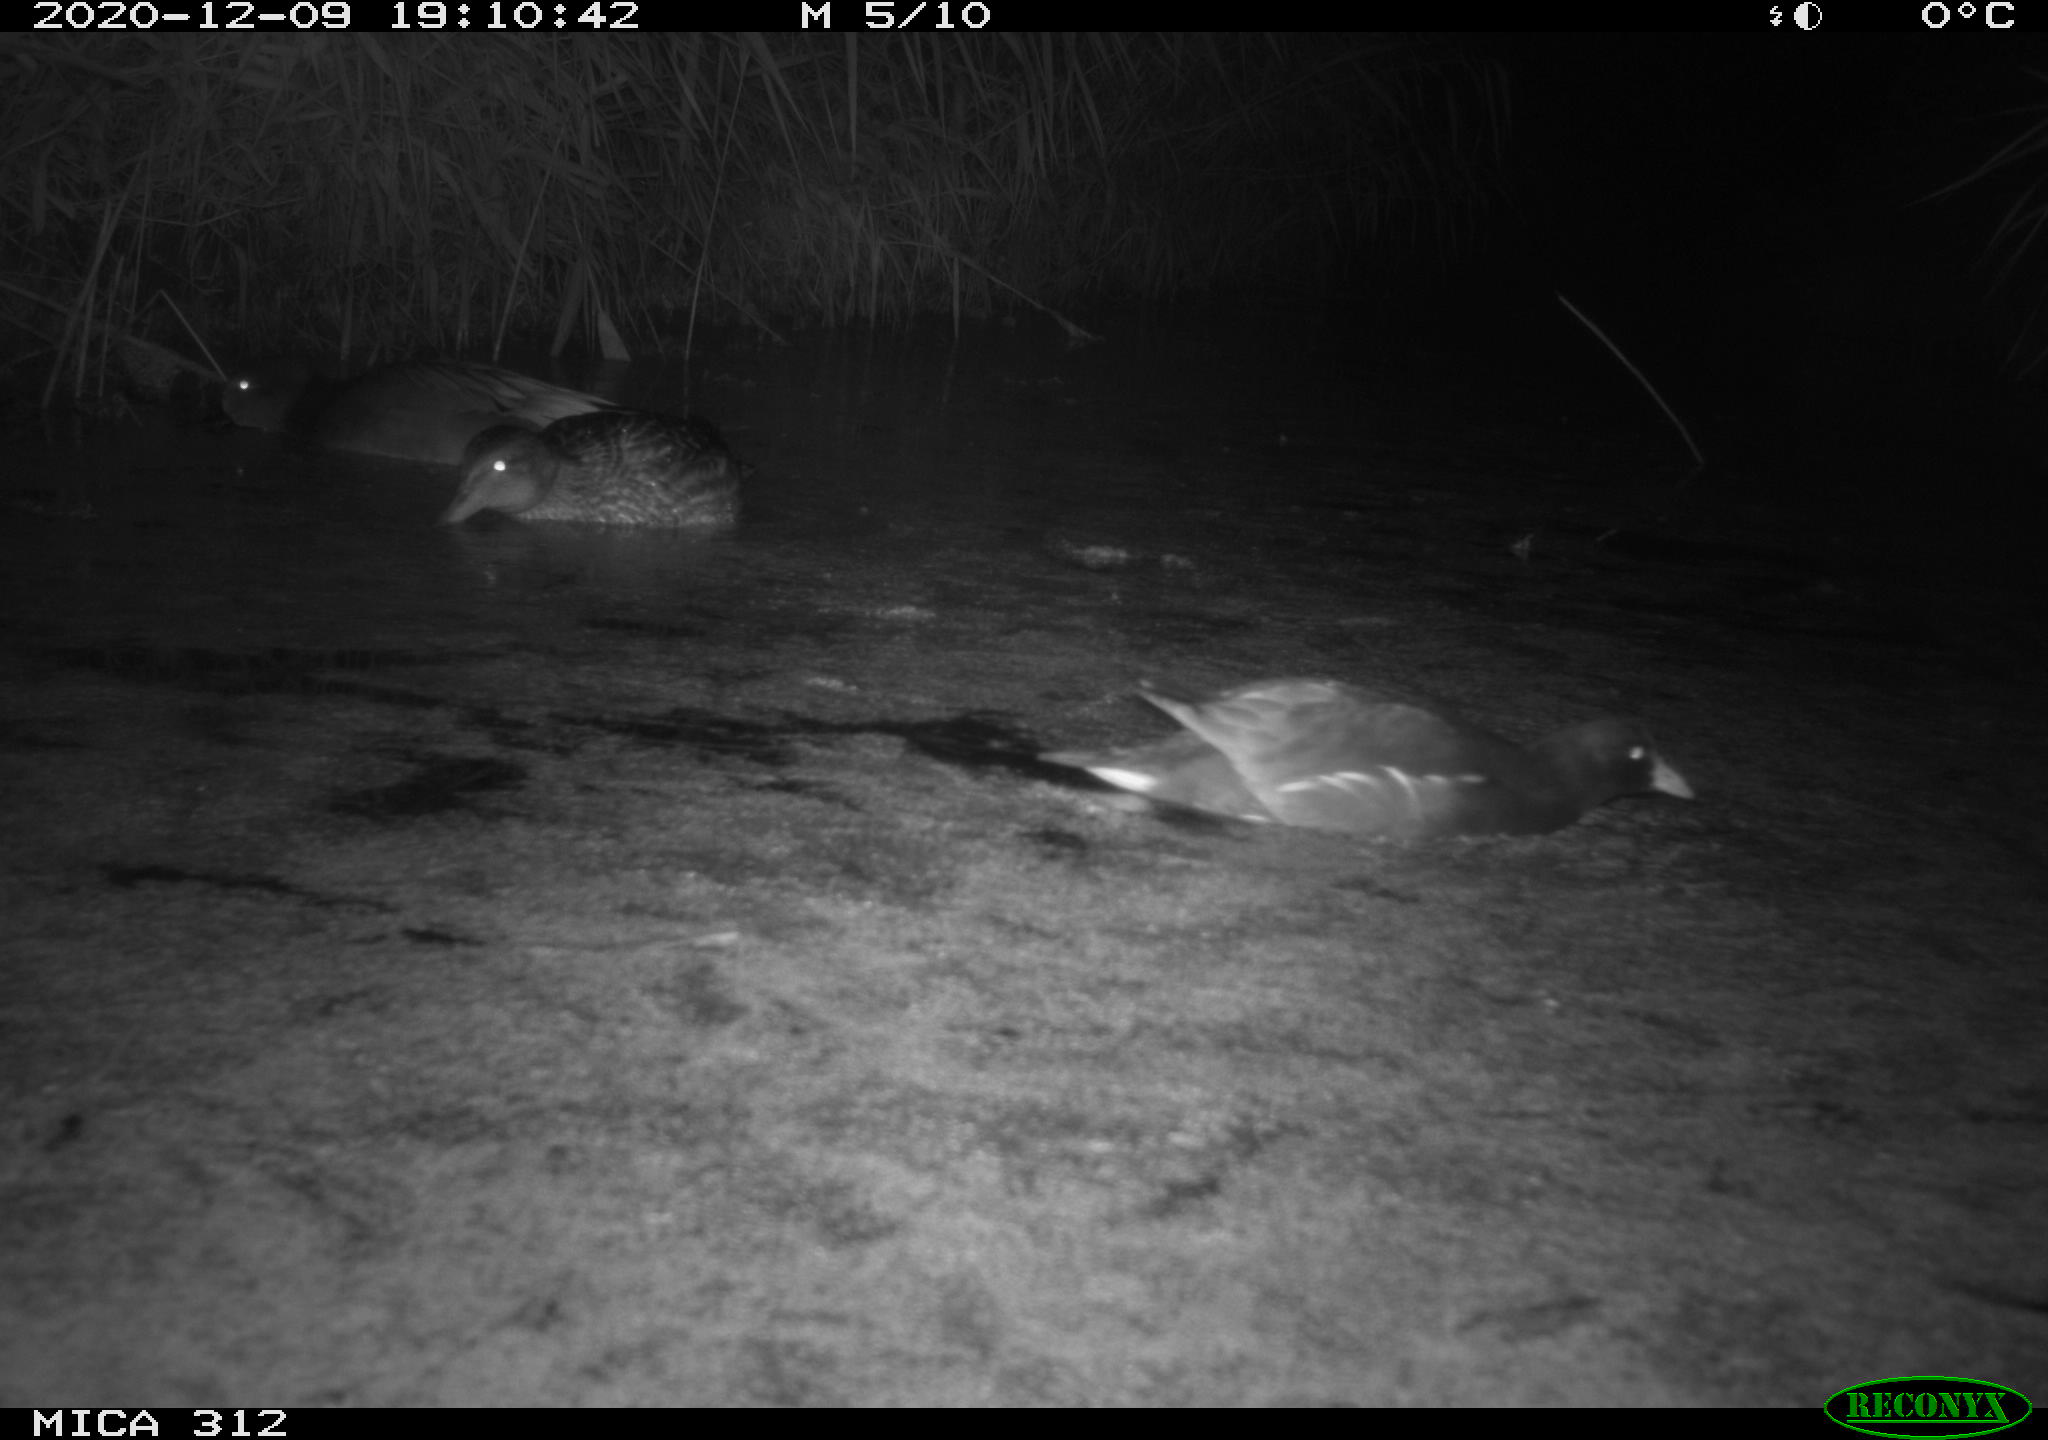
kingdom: Animalia
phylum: Chordata
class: Aves
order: Anseriformes
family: Anatidae
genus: Mareca
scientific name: Mareca strepera
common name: Gadwall
